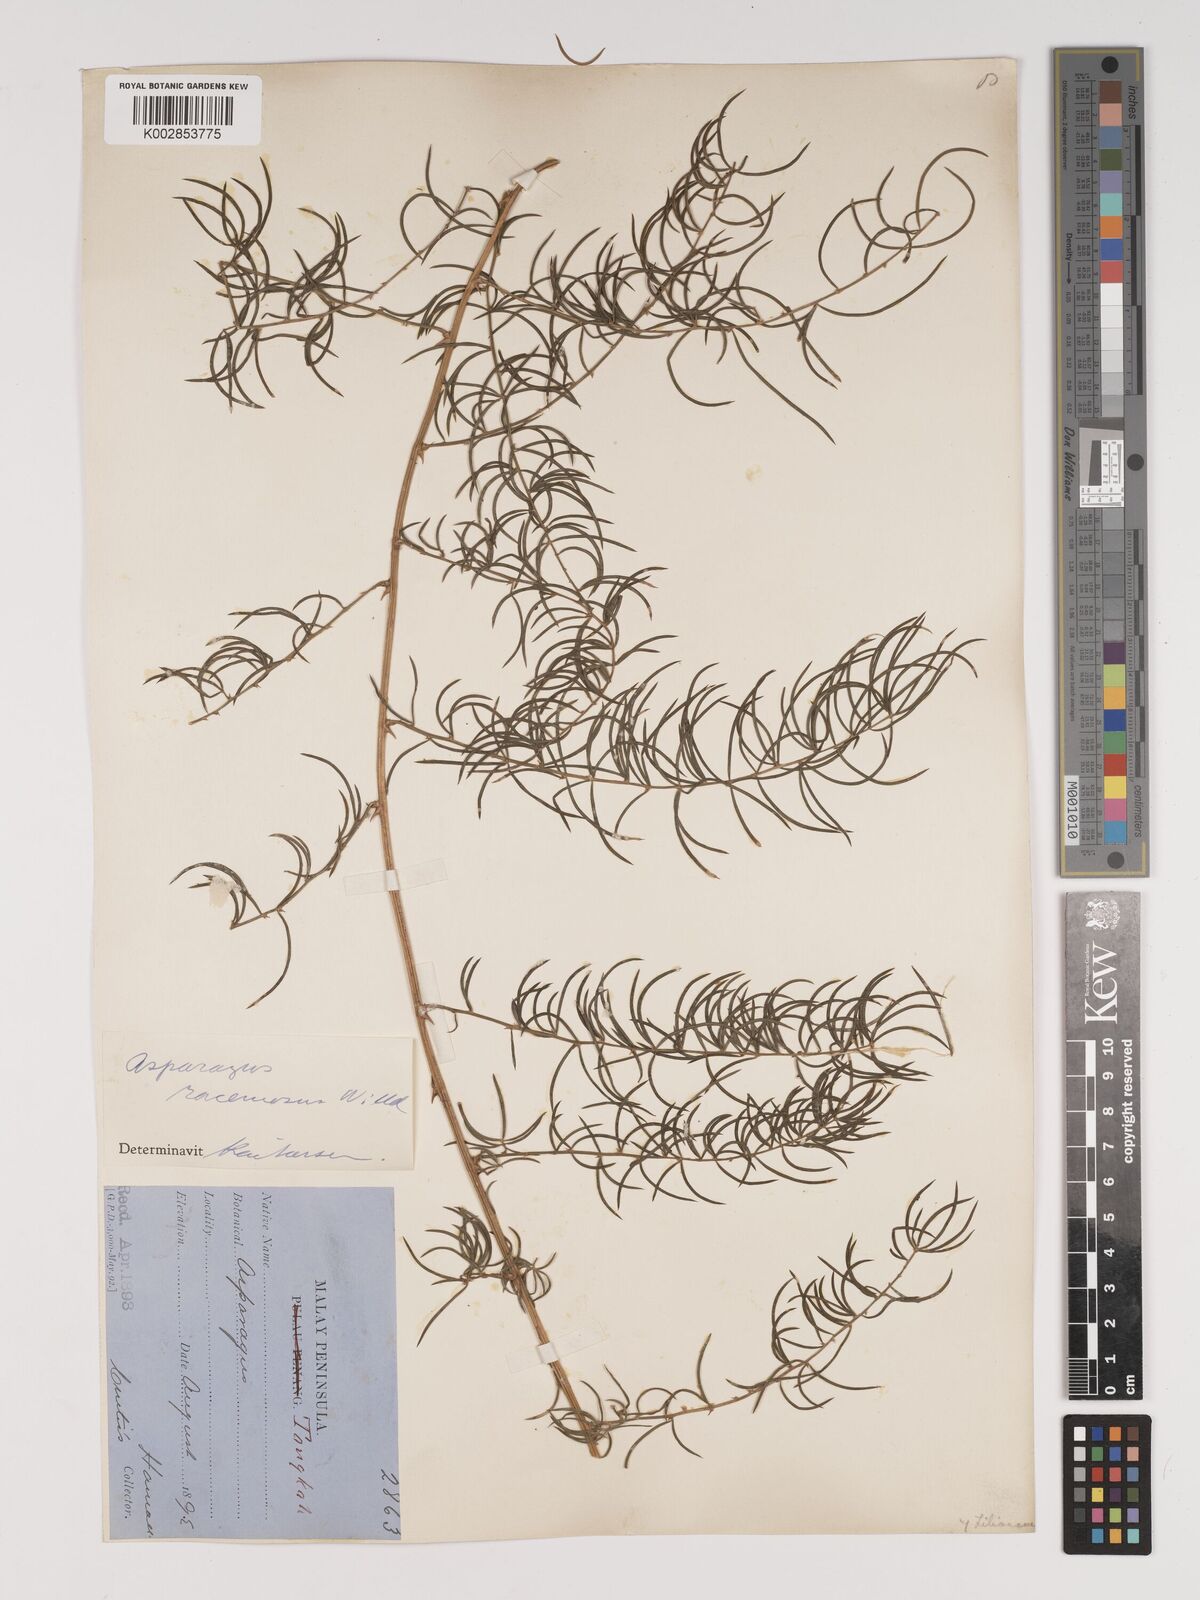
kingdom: Plantae
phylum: Tracheophyta
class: Liliopsida
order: Asparagales
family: Asparagaceae
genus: Asparagus
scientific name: Asparagus racemosus
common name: Asparagus-fern
